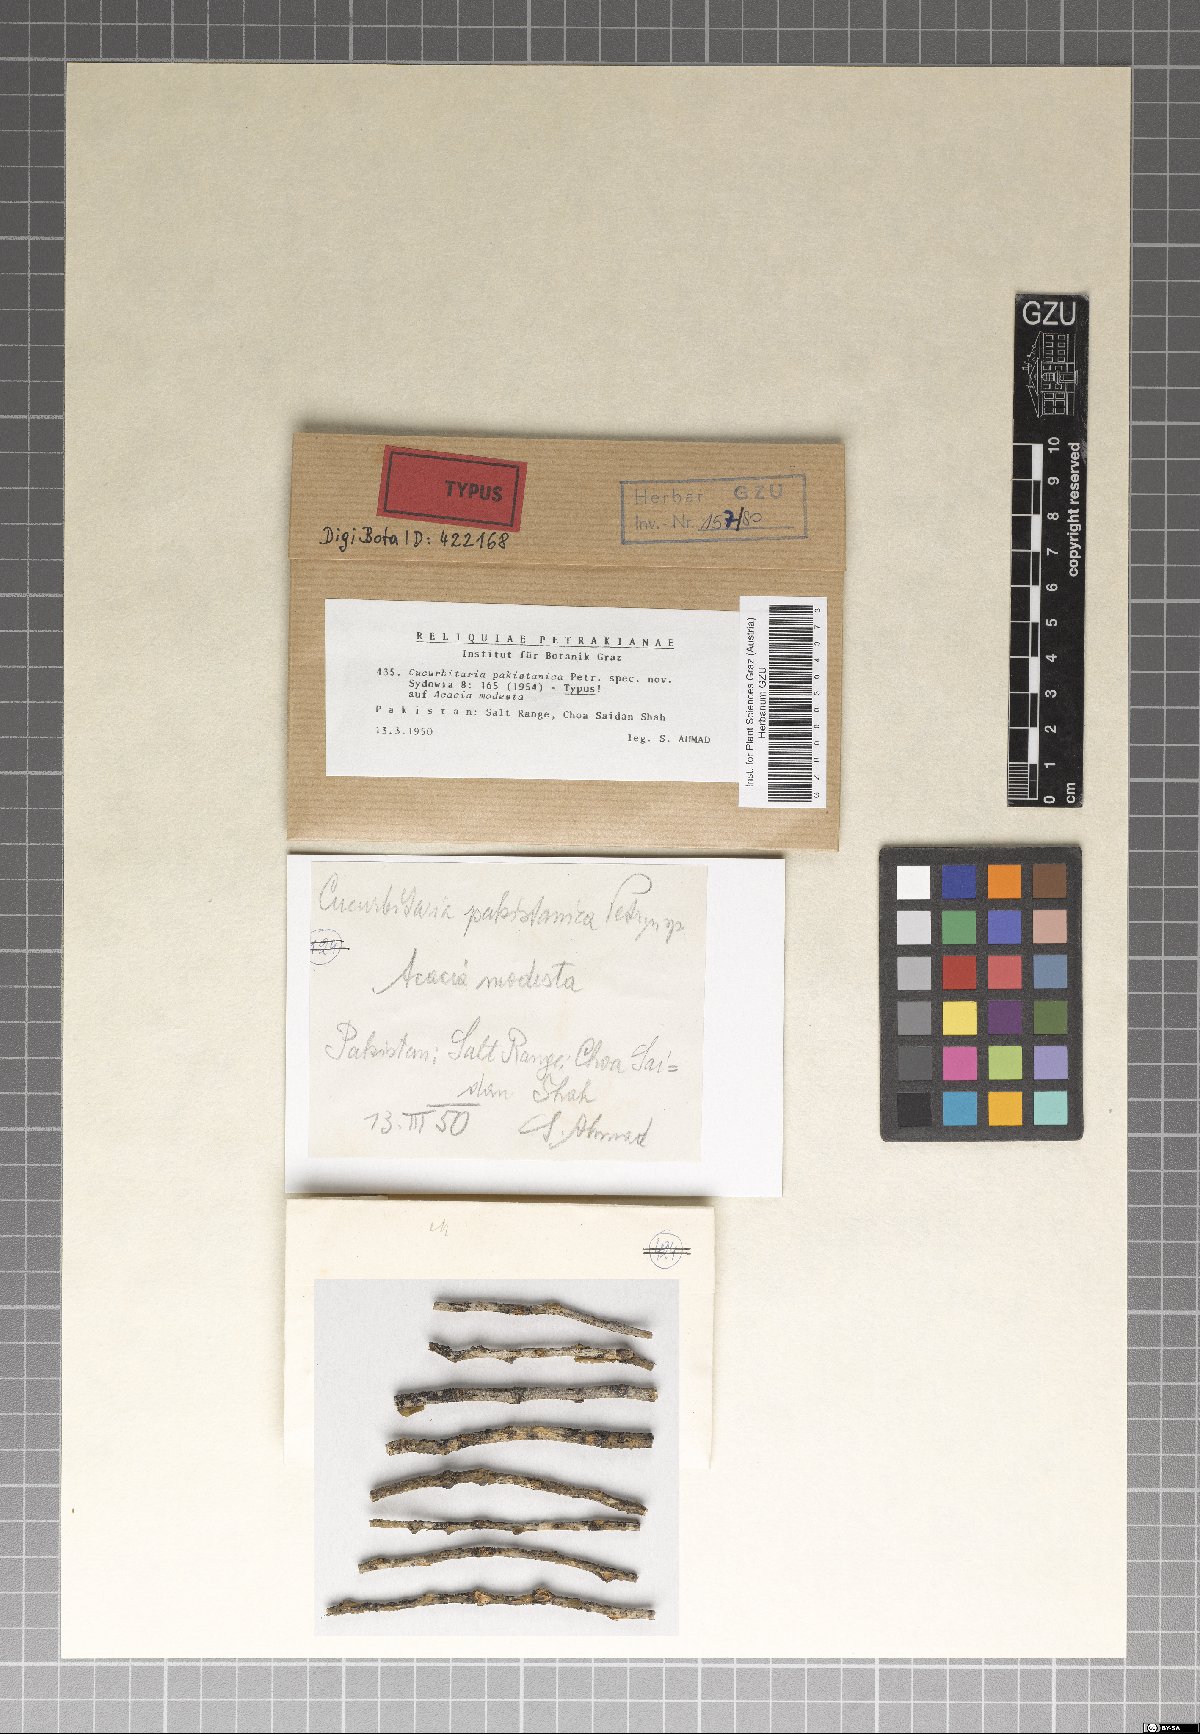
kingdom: Fungi
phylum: Ascomycota
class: Dothideomycetes
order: Pleosporales
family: Cucurbitariaceae
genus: Cucurbitaria
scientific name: Cucurbitaria pakistanica
